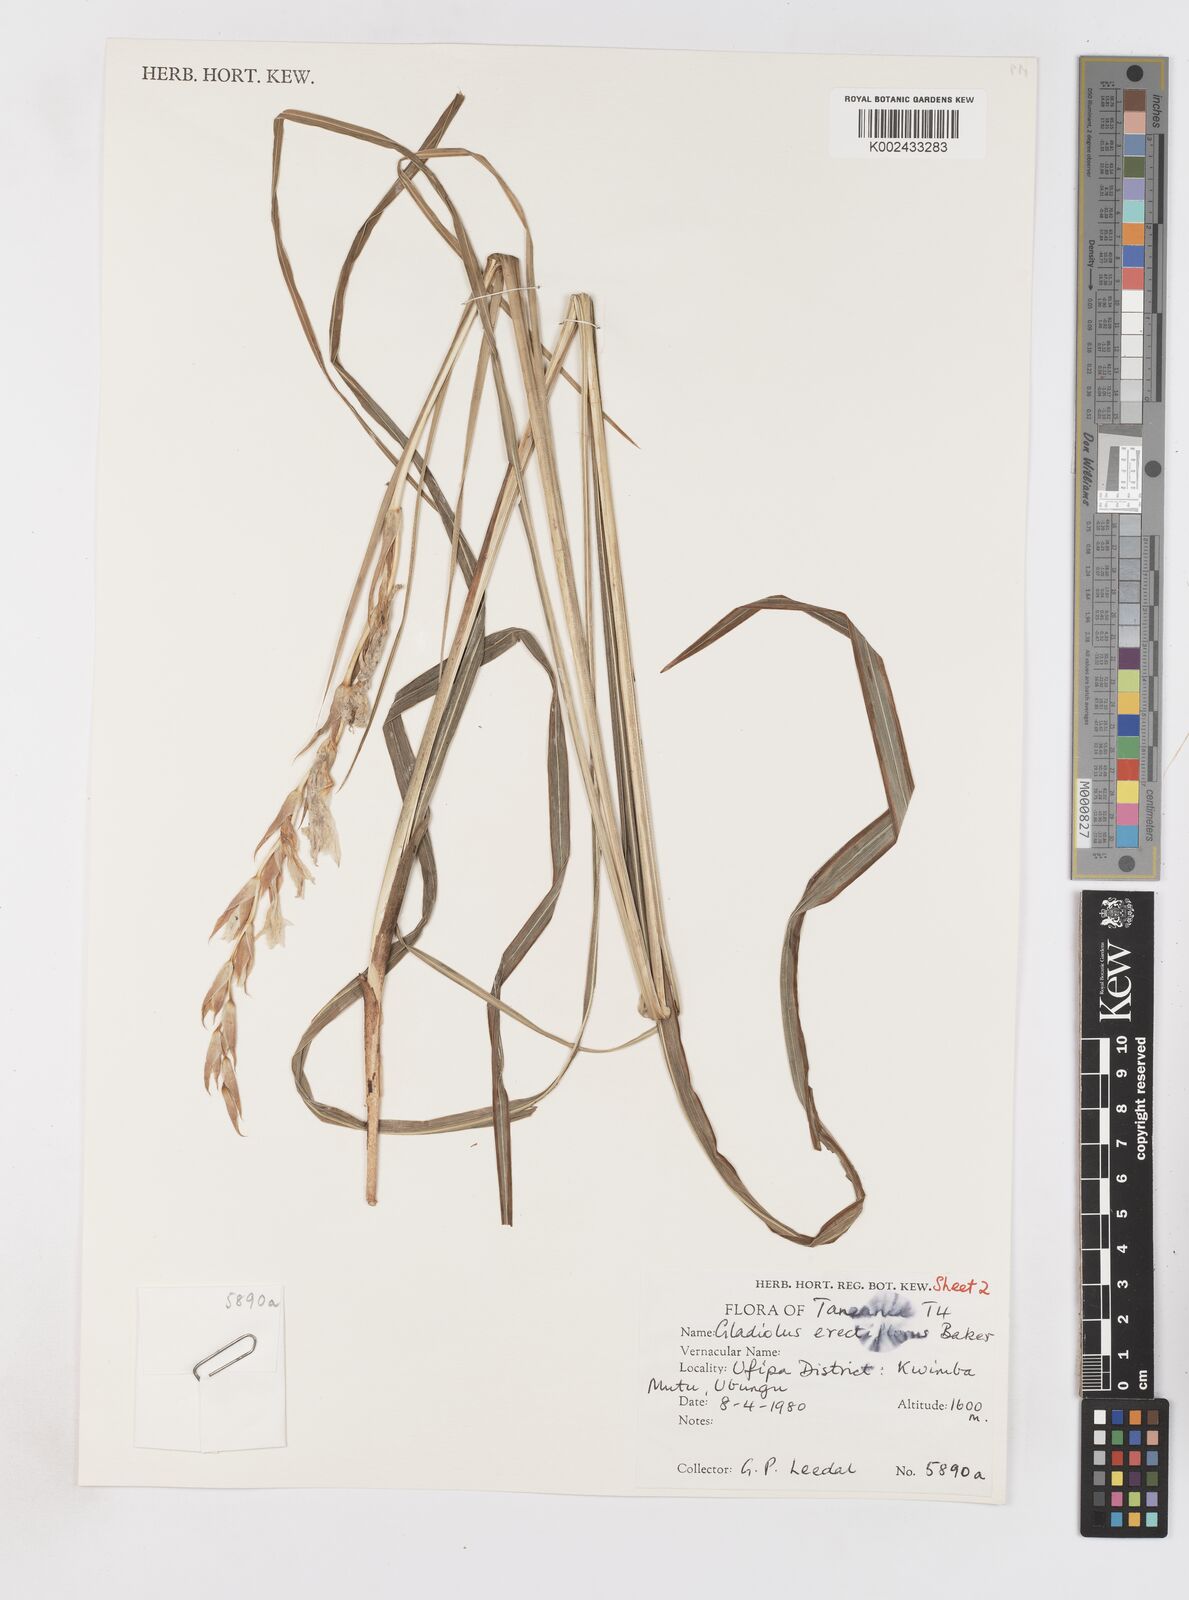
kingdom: Plantae
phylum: Tracheophyta
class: Liliopsida
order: Asparagales
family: Iridaceae
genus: Gladiolus
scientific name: Gladiolus erectiflorus
